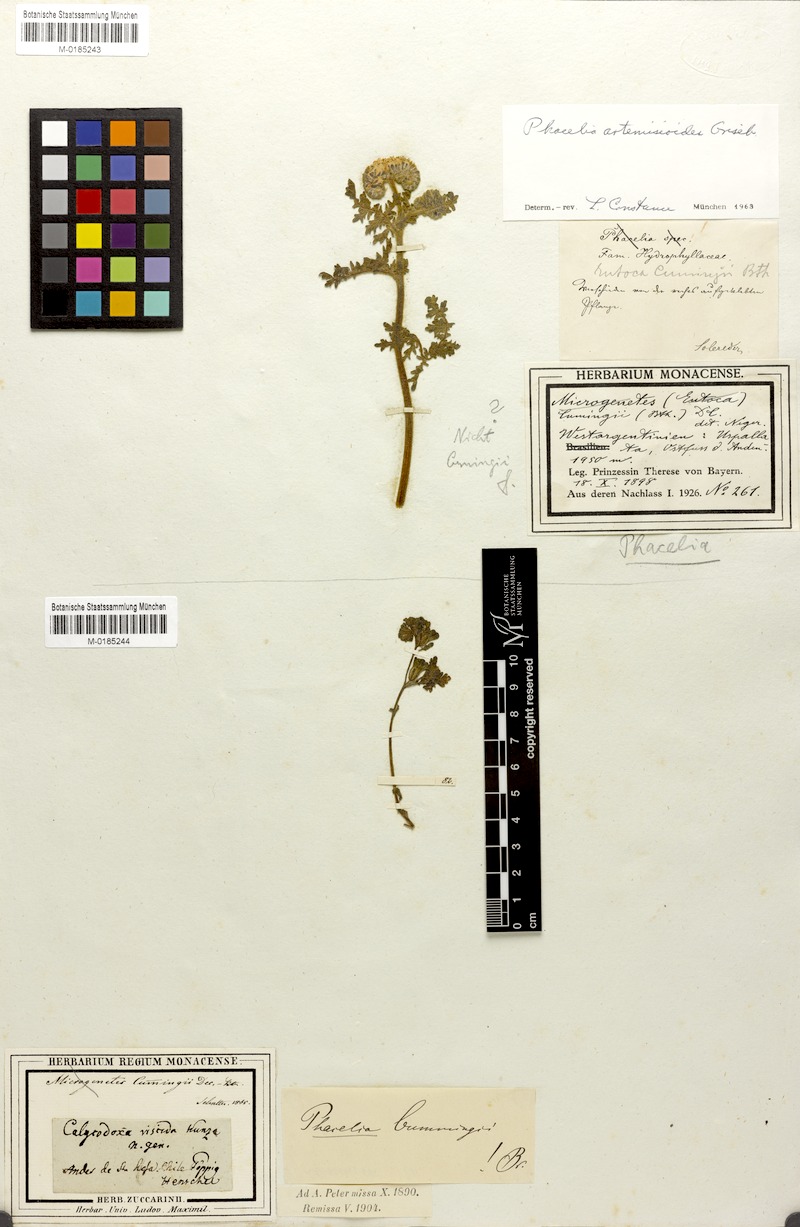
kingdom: Plantae
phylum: Tracheophyta
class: Magnoliopsida
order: Boraginales
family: Hydrophyllaceae
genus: Phacelia
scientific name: Phacelia artemisioides
